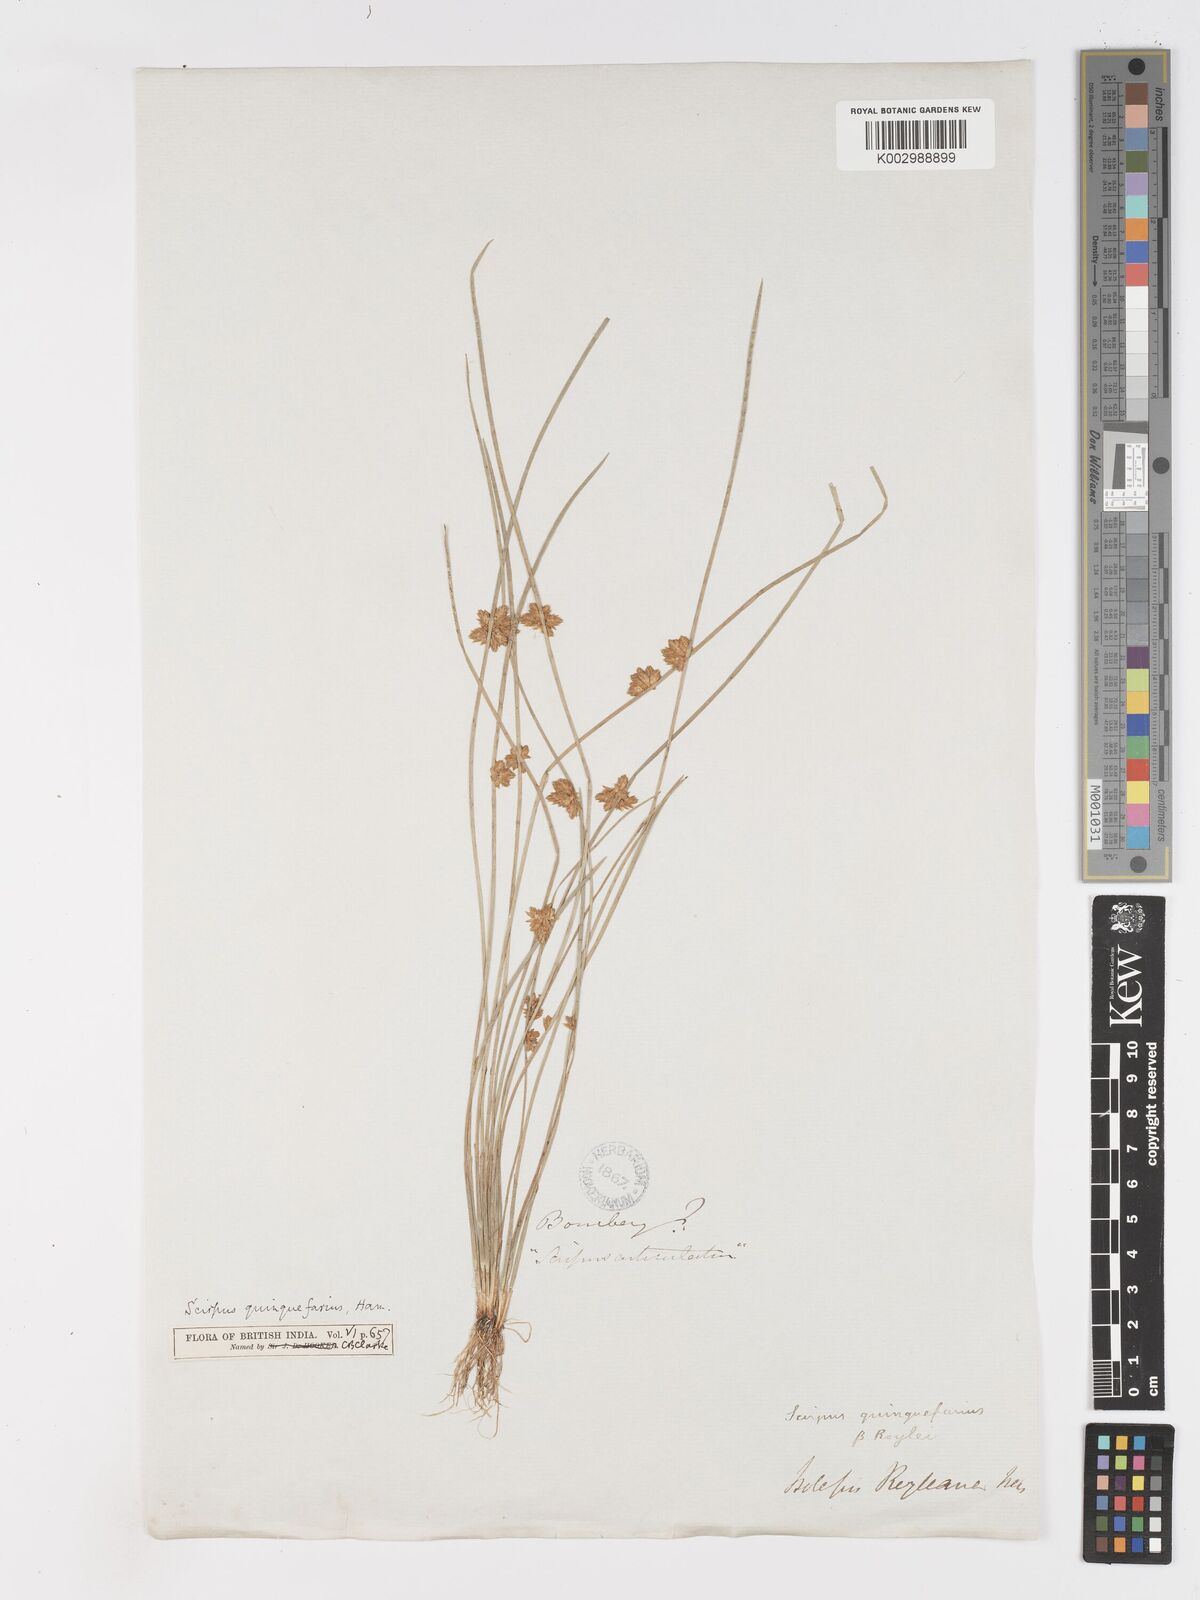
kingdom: Plantae
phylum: Tracheophyta
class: Liliopsida
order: Poales
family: Cyperaceae
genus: Schoenoplectiella
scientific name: Schoenoplectiella roylei
